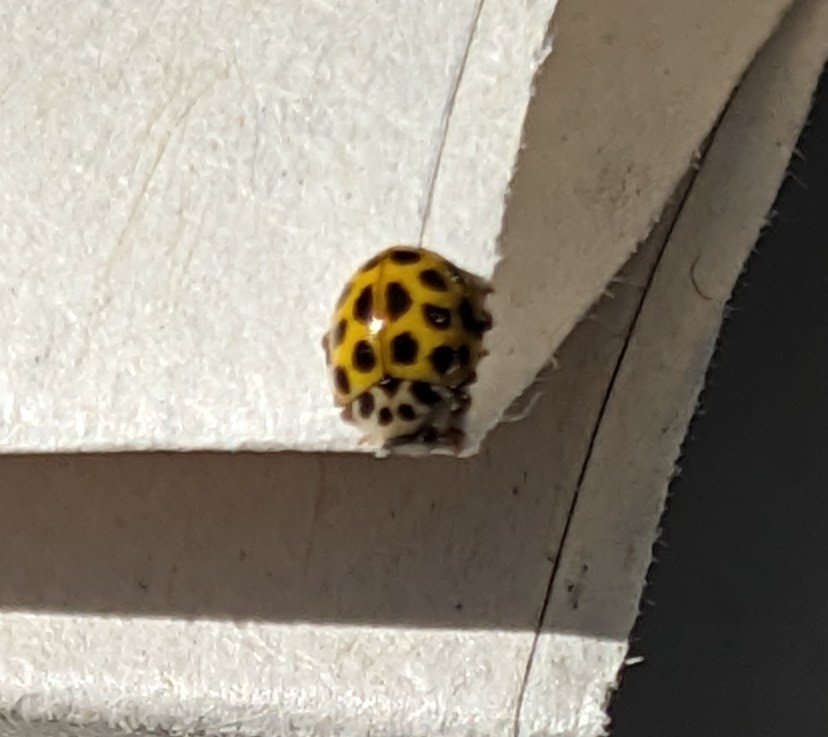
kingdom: Animalia
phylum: Arthropoda
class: Insecta
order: Coleoptera
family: Coccinellidae
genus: Psyllobora
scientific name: Psyllobora vigintiduopunctata
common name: Toogtyveplettet mariehøne
